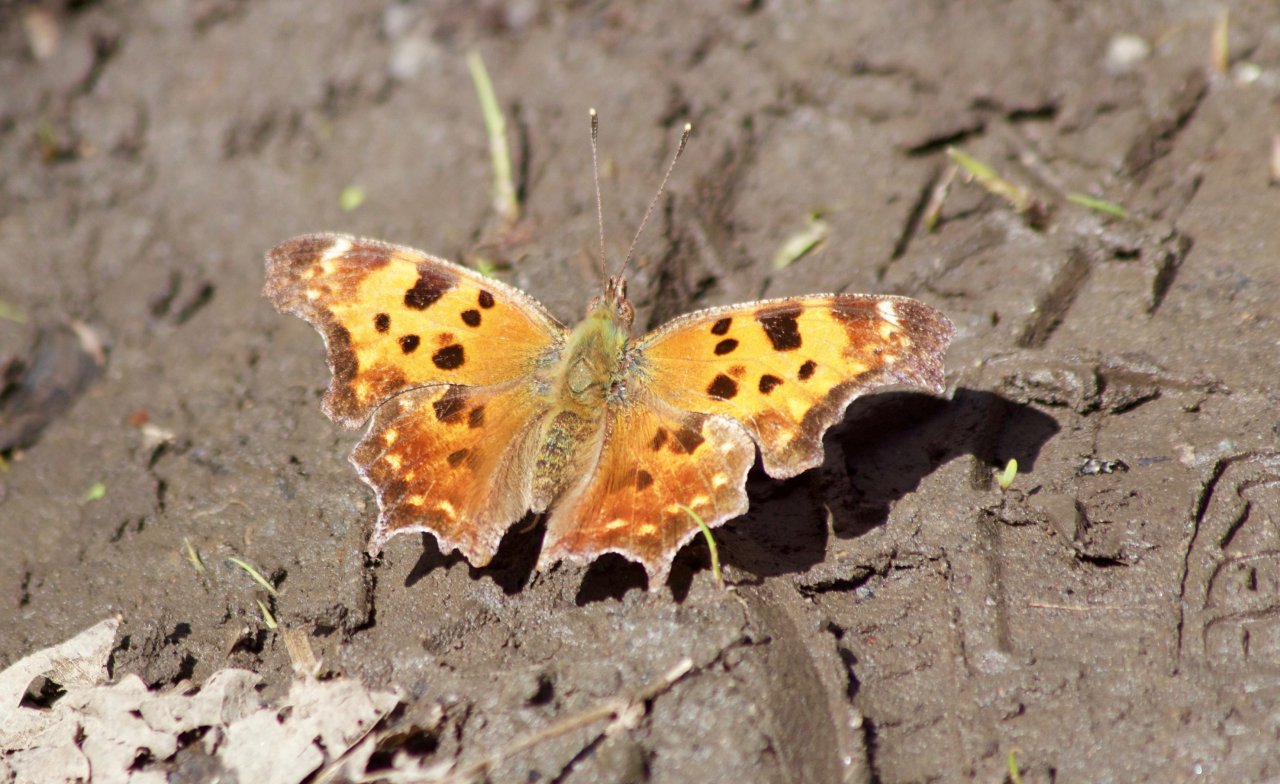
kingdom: Animalia
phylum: Arthropoda
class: Insecta
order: Lepidoptera
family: Nymphalidae
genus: Polygonia
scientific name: Polygonia comma
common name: Eastern Comma
